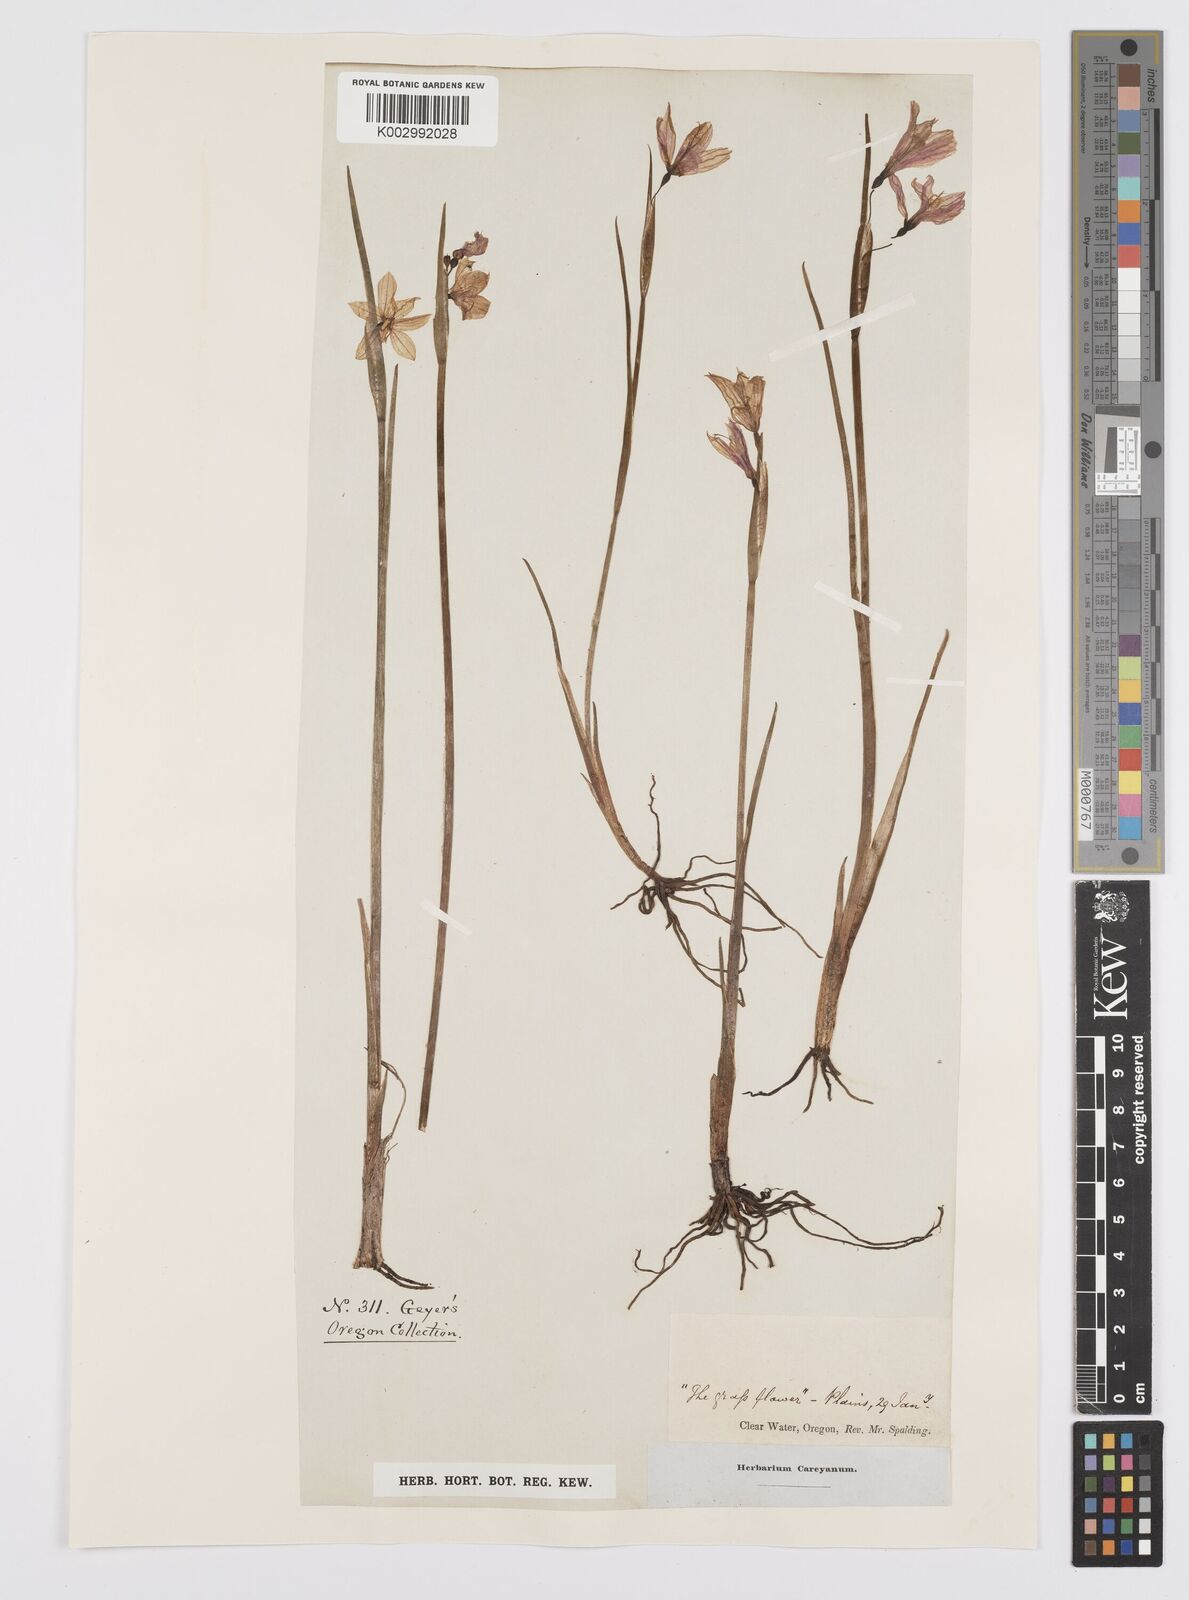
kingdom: Plantae
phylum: Tracheophyta
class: Liliopsida
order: Asparagales
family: Iridaceae
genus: Sisyrinchium
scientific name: Sisyrinchium
